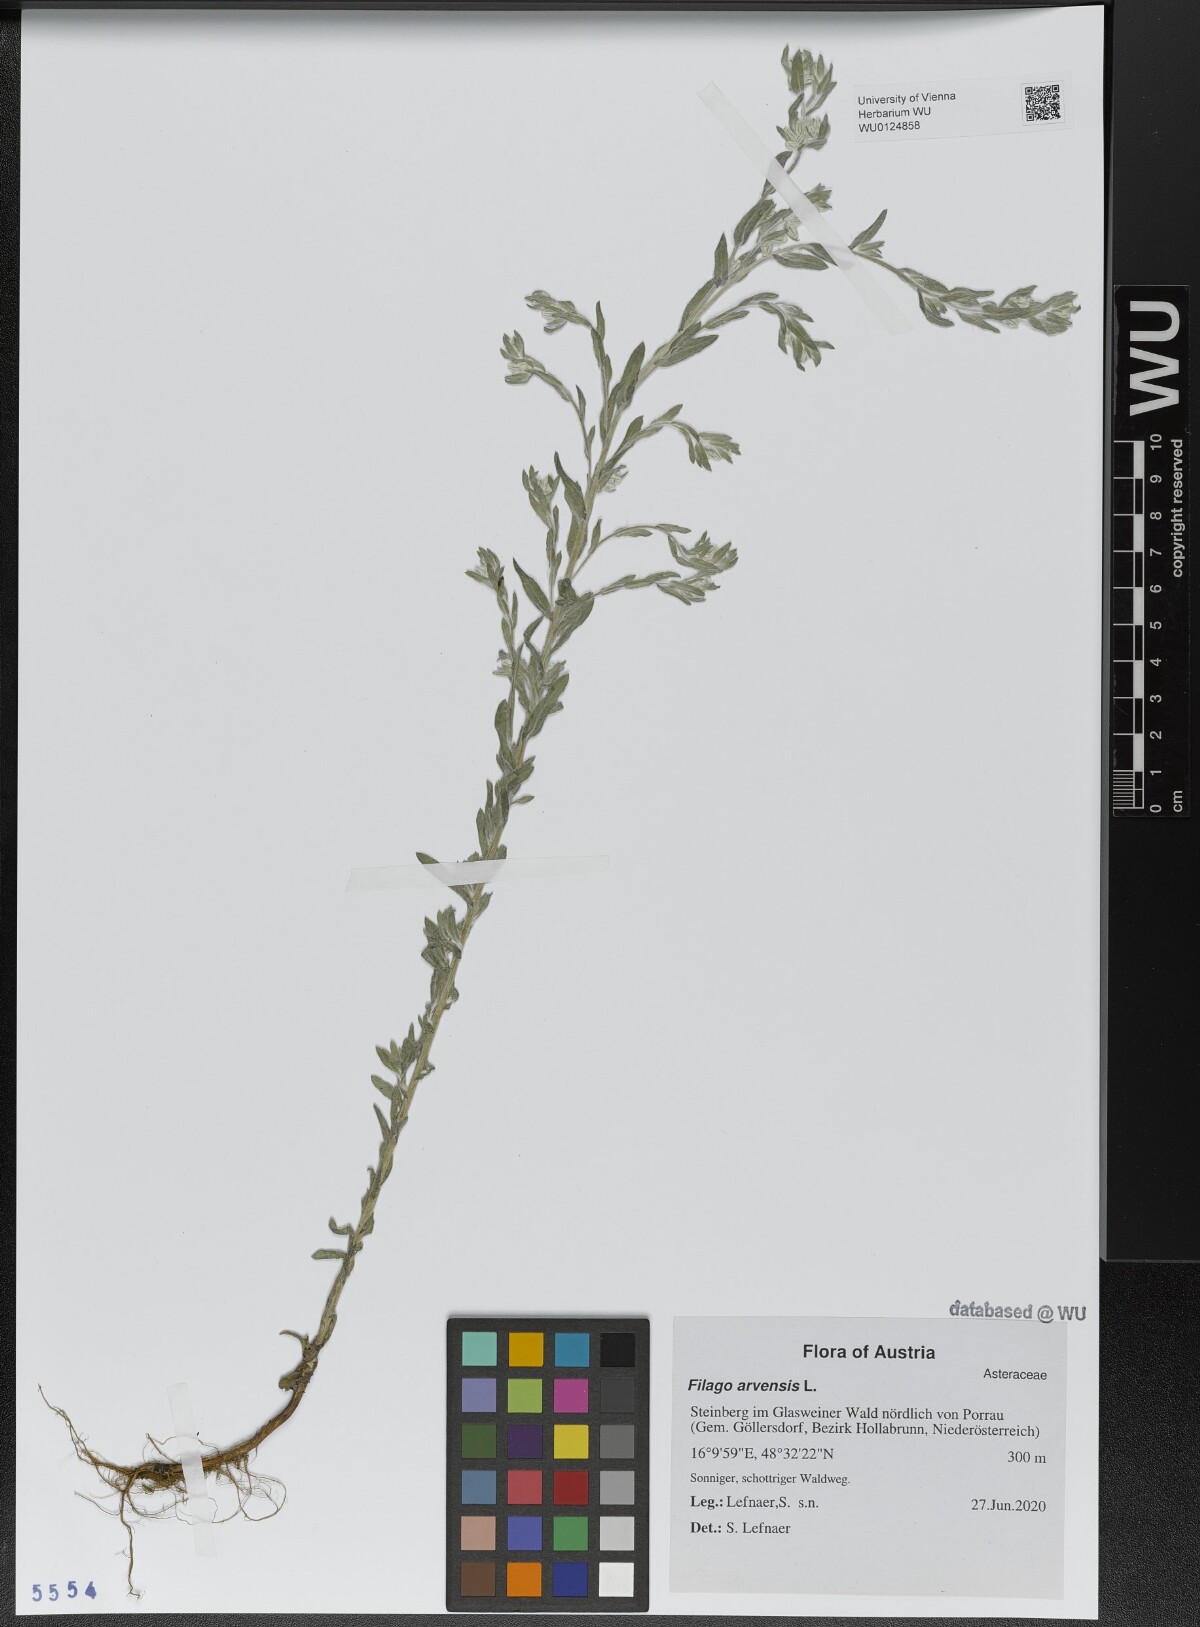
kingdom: Plantae
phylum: Tracheophyta
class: Magnoliopsida
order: Asterales
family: Asteraceae
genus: Filago
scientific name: Filago arvensis
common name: Field cudweed
